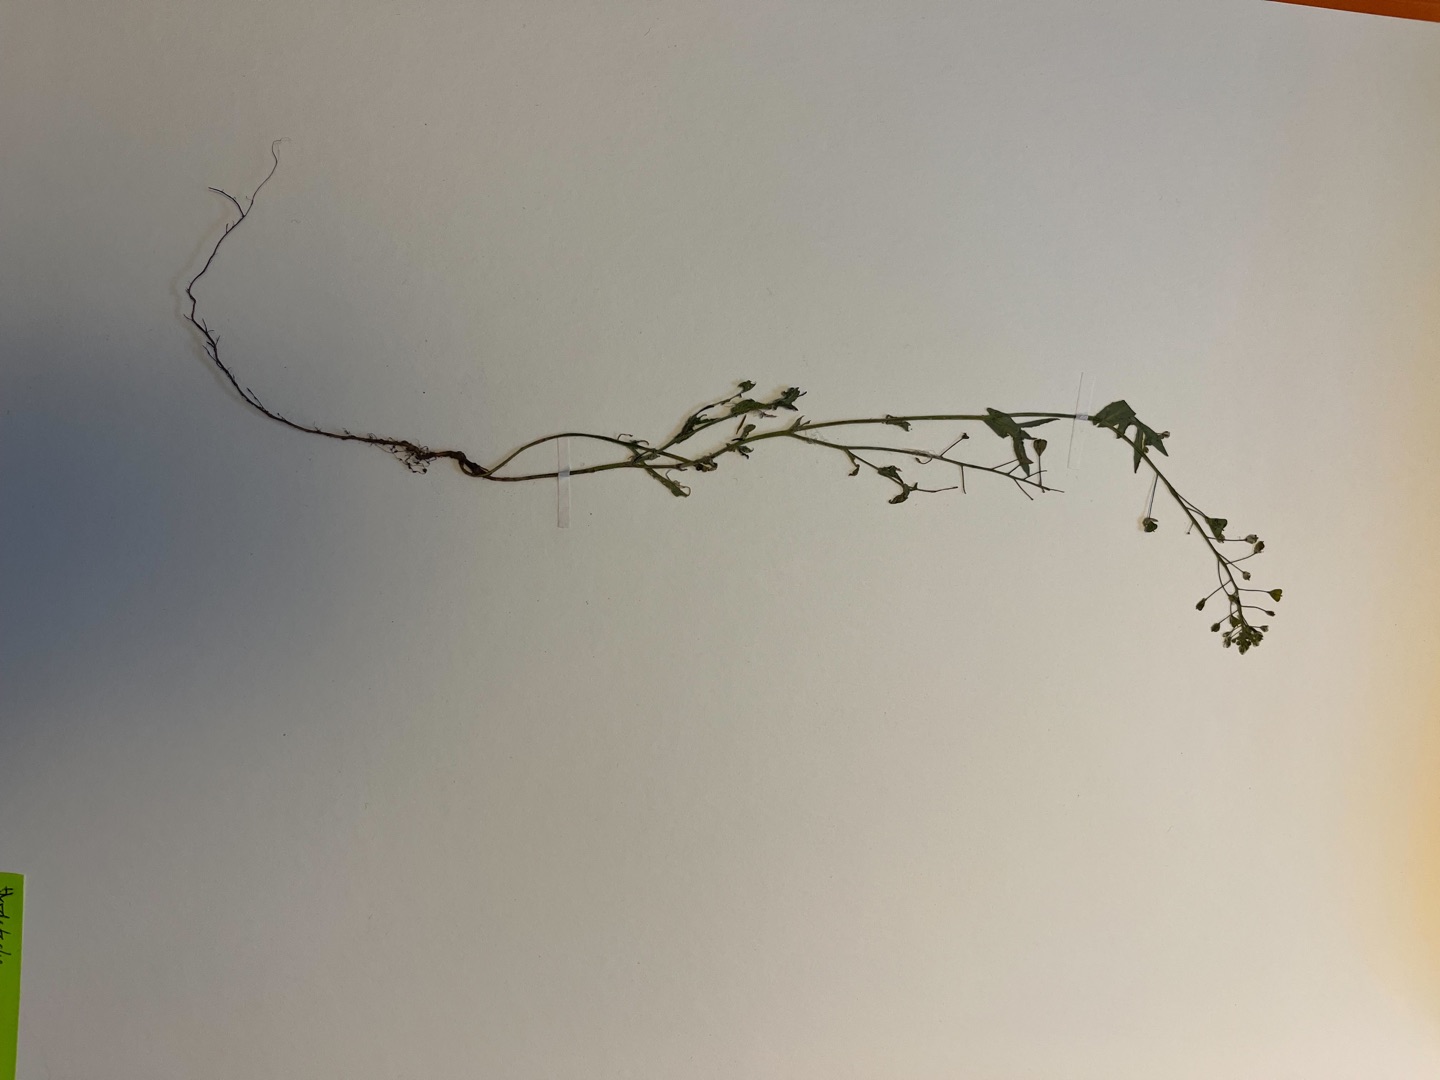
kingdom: Plantae
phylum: Tracheophyta
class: Magnoliopsida
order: Brassicales
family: Brassicaceae
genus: Capsella
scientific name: Capsella bursa-pastoris
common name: Hyrdetaske
